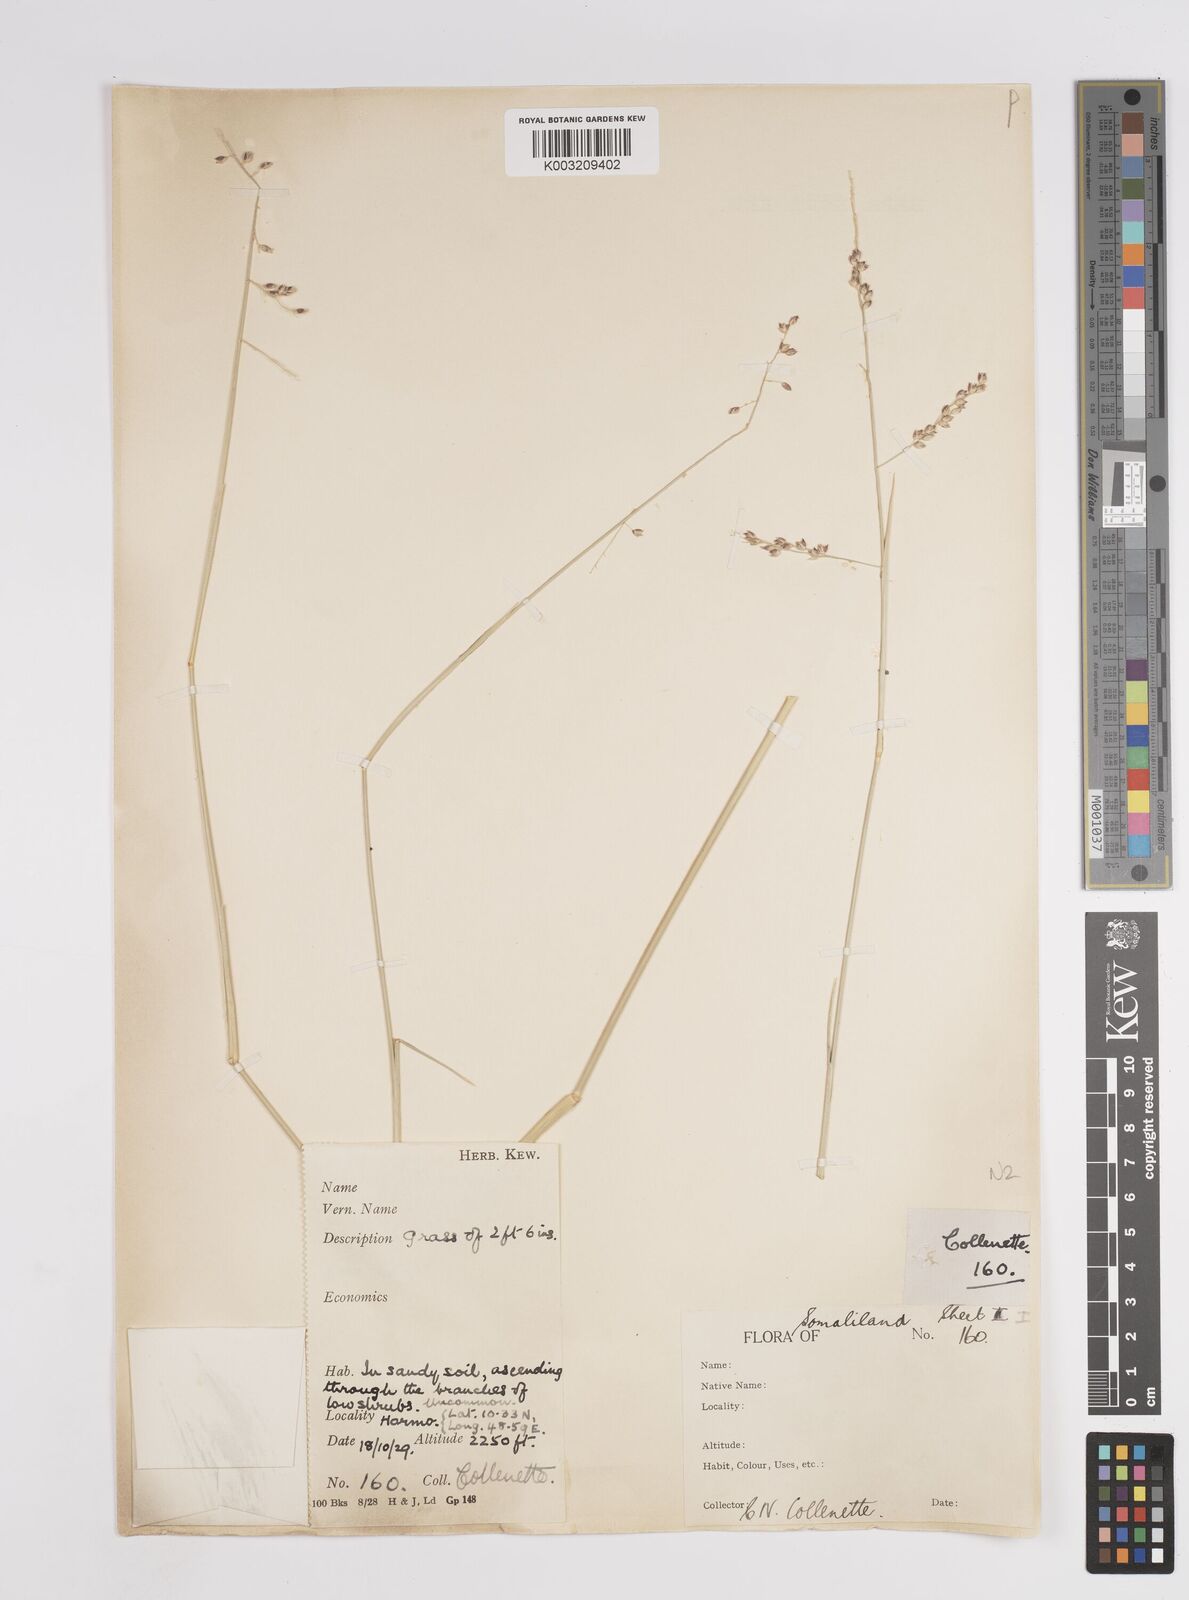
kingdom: Plantae
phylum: Tracheophyta
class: Liliopsida
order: Poales
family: Poaceae
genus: Panicum
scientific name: Panicum turgidum
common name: Desert grass
